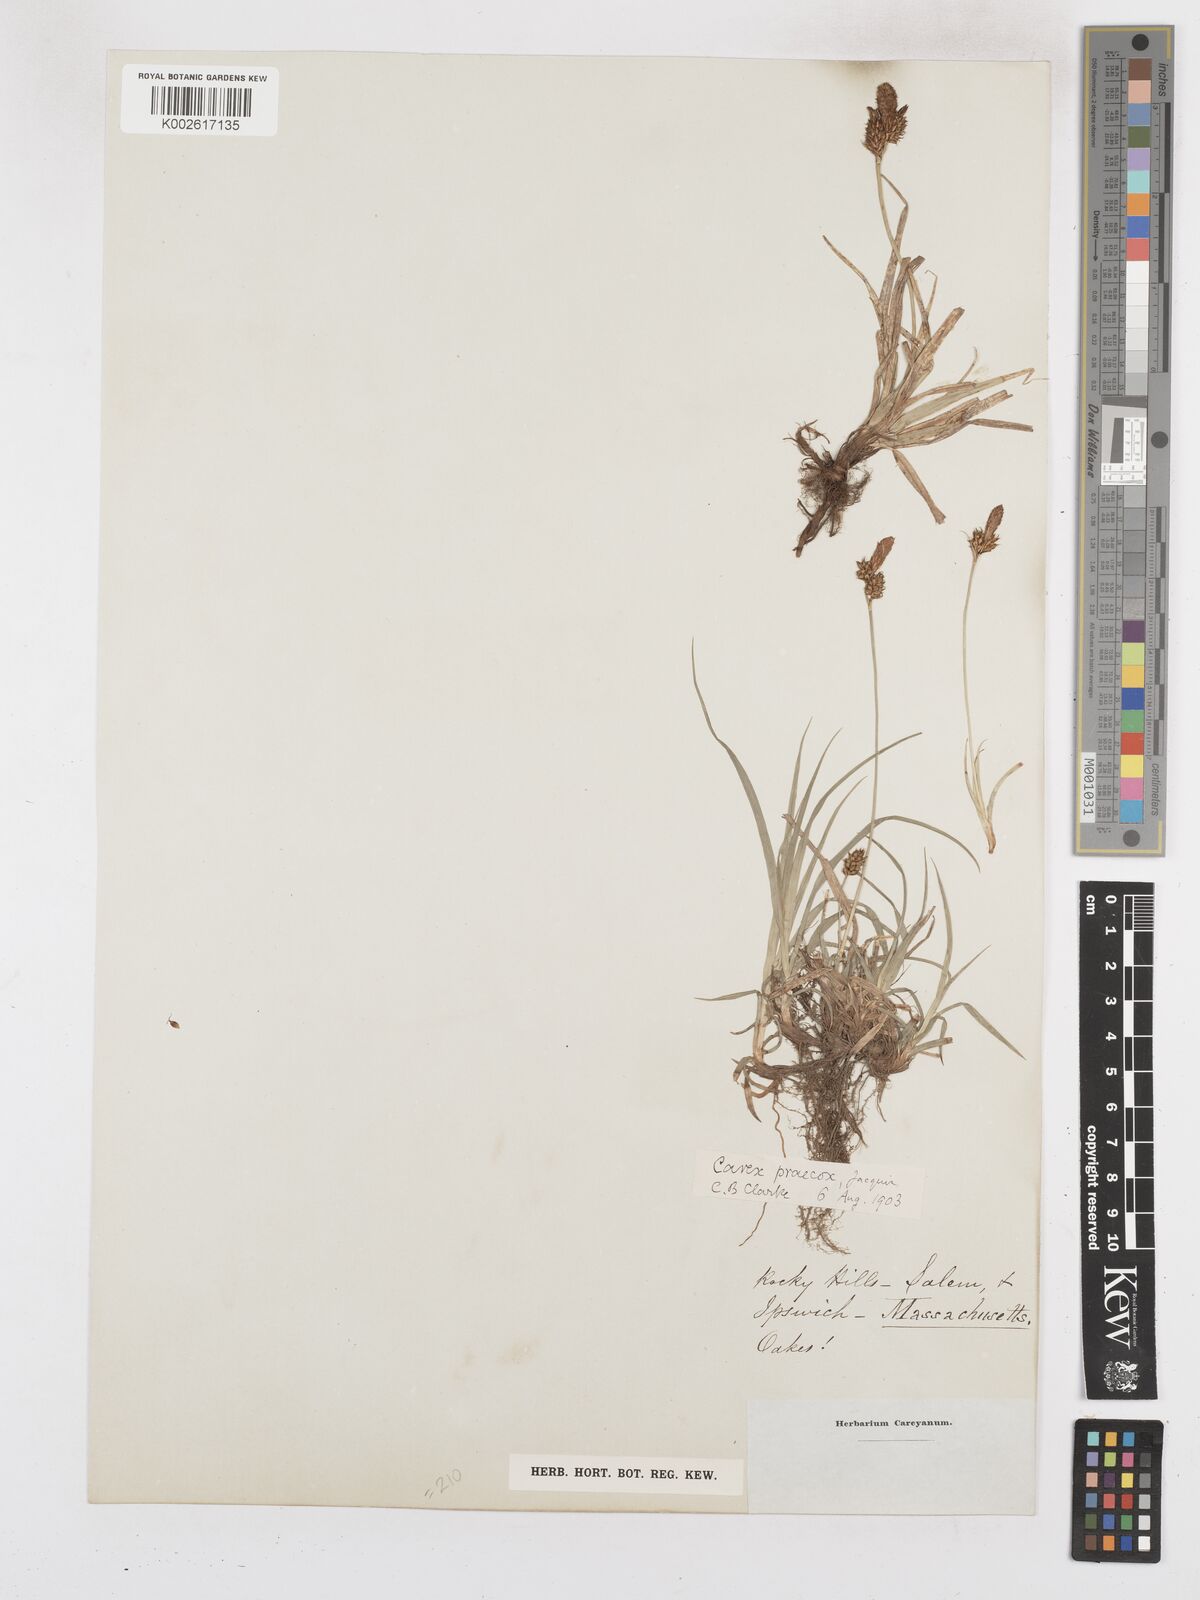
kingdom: Plantae
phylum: Tracheophyta
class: Liliopsida
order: Poales
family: Cyperaceae
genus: Carex
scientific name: Carex caryophyllea
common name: Spring sedge
